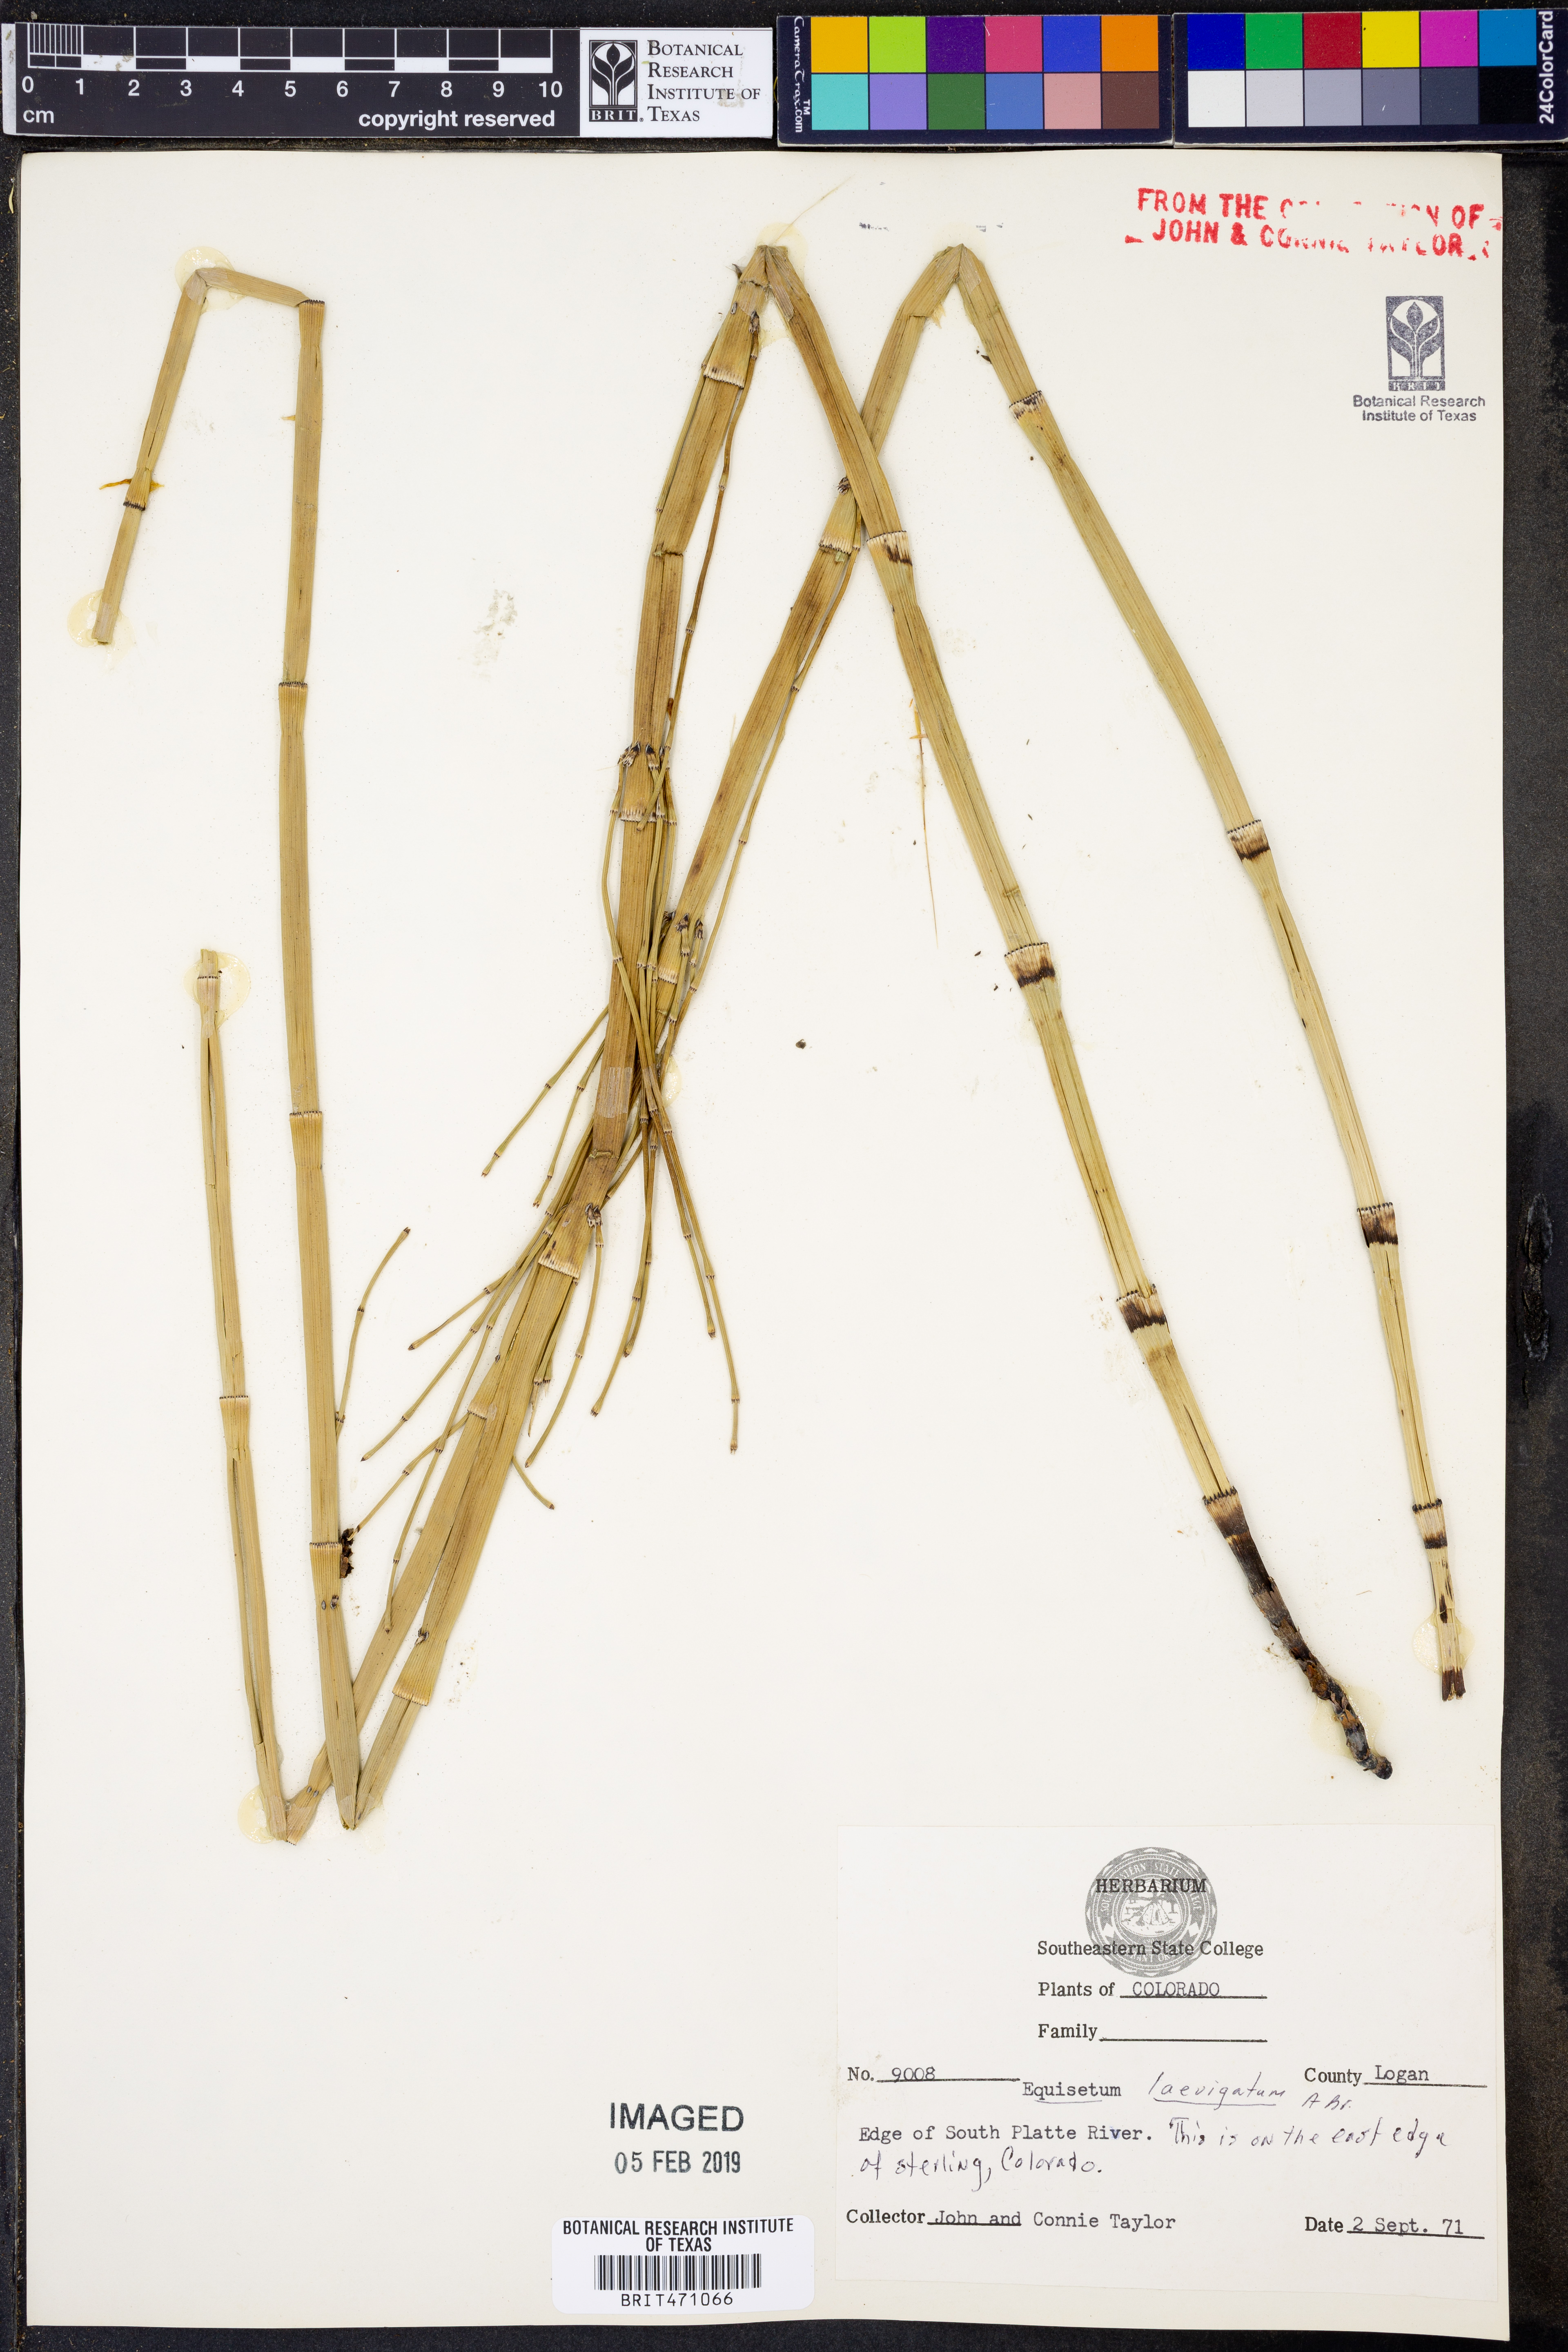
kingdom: Plantae
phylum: Tracheophyta
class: Polypodiopsida
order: Equisetales
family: Equisetaceae
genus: Equisetum
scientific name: Equisetum laevigatum
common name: Smooth scouring-rush
